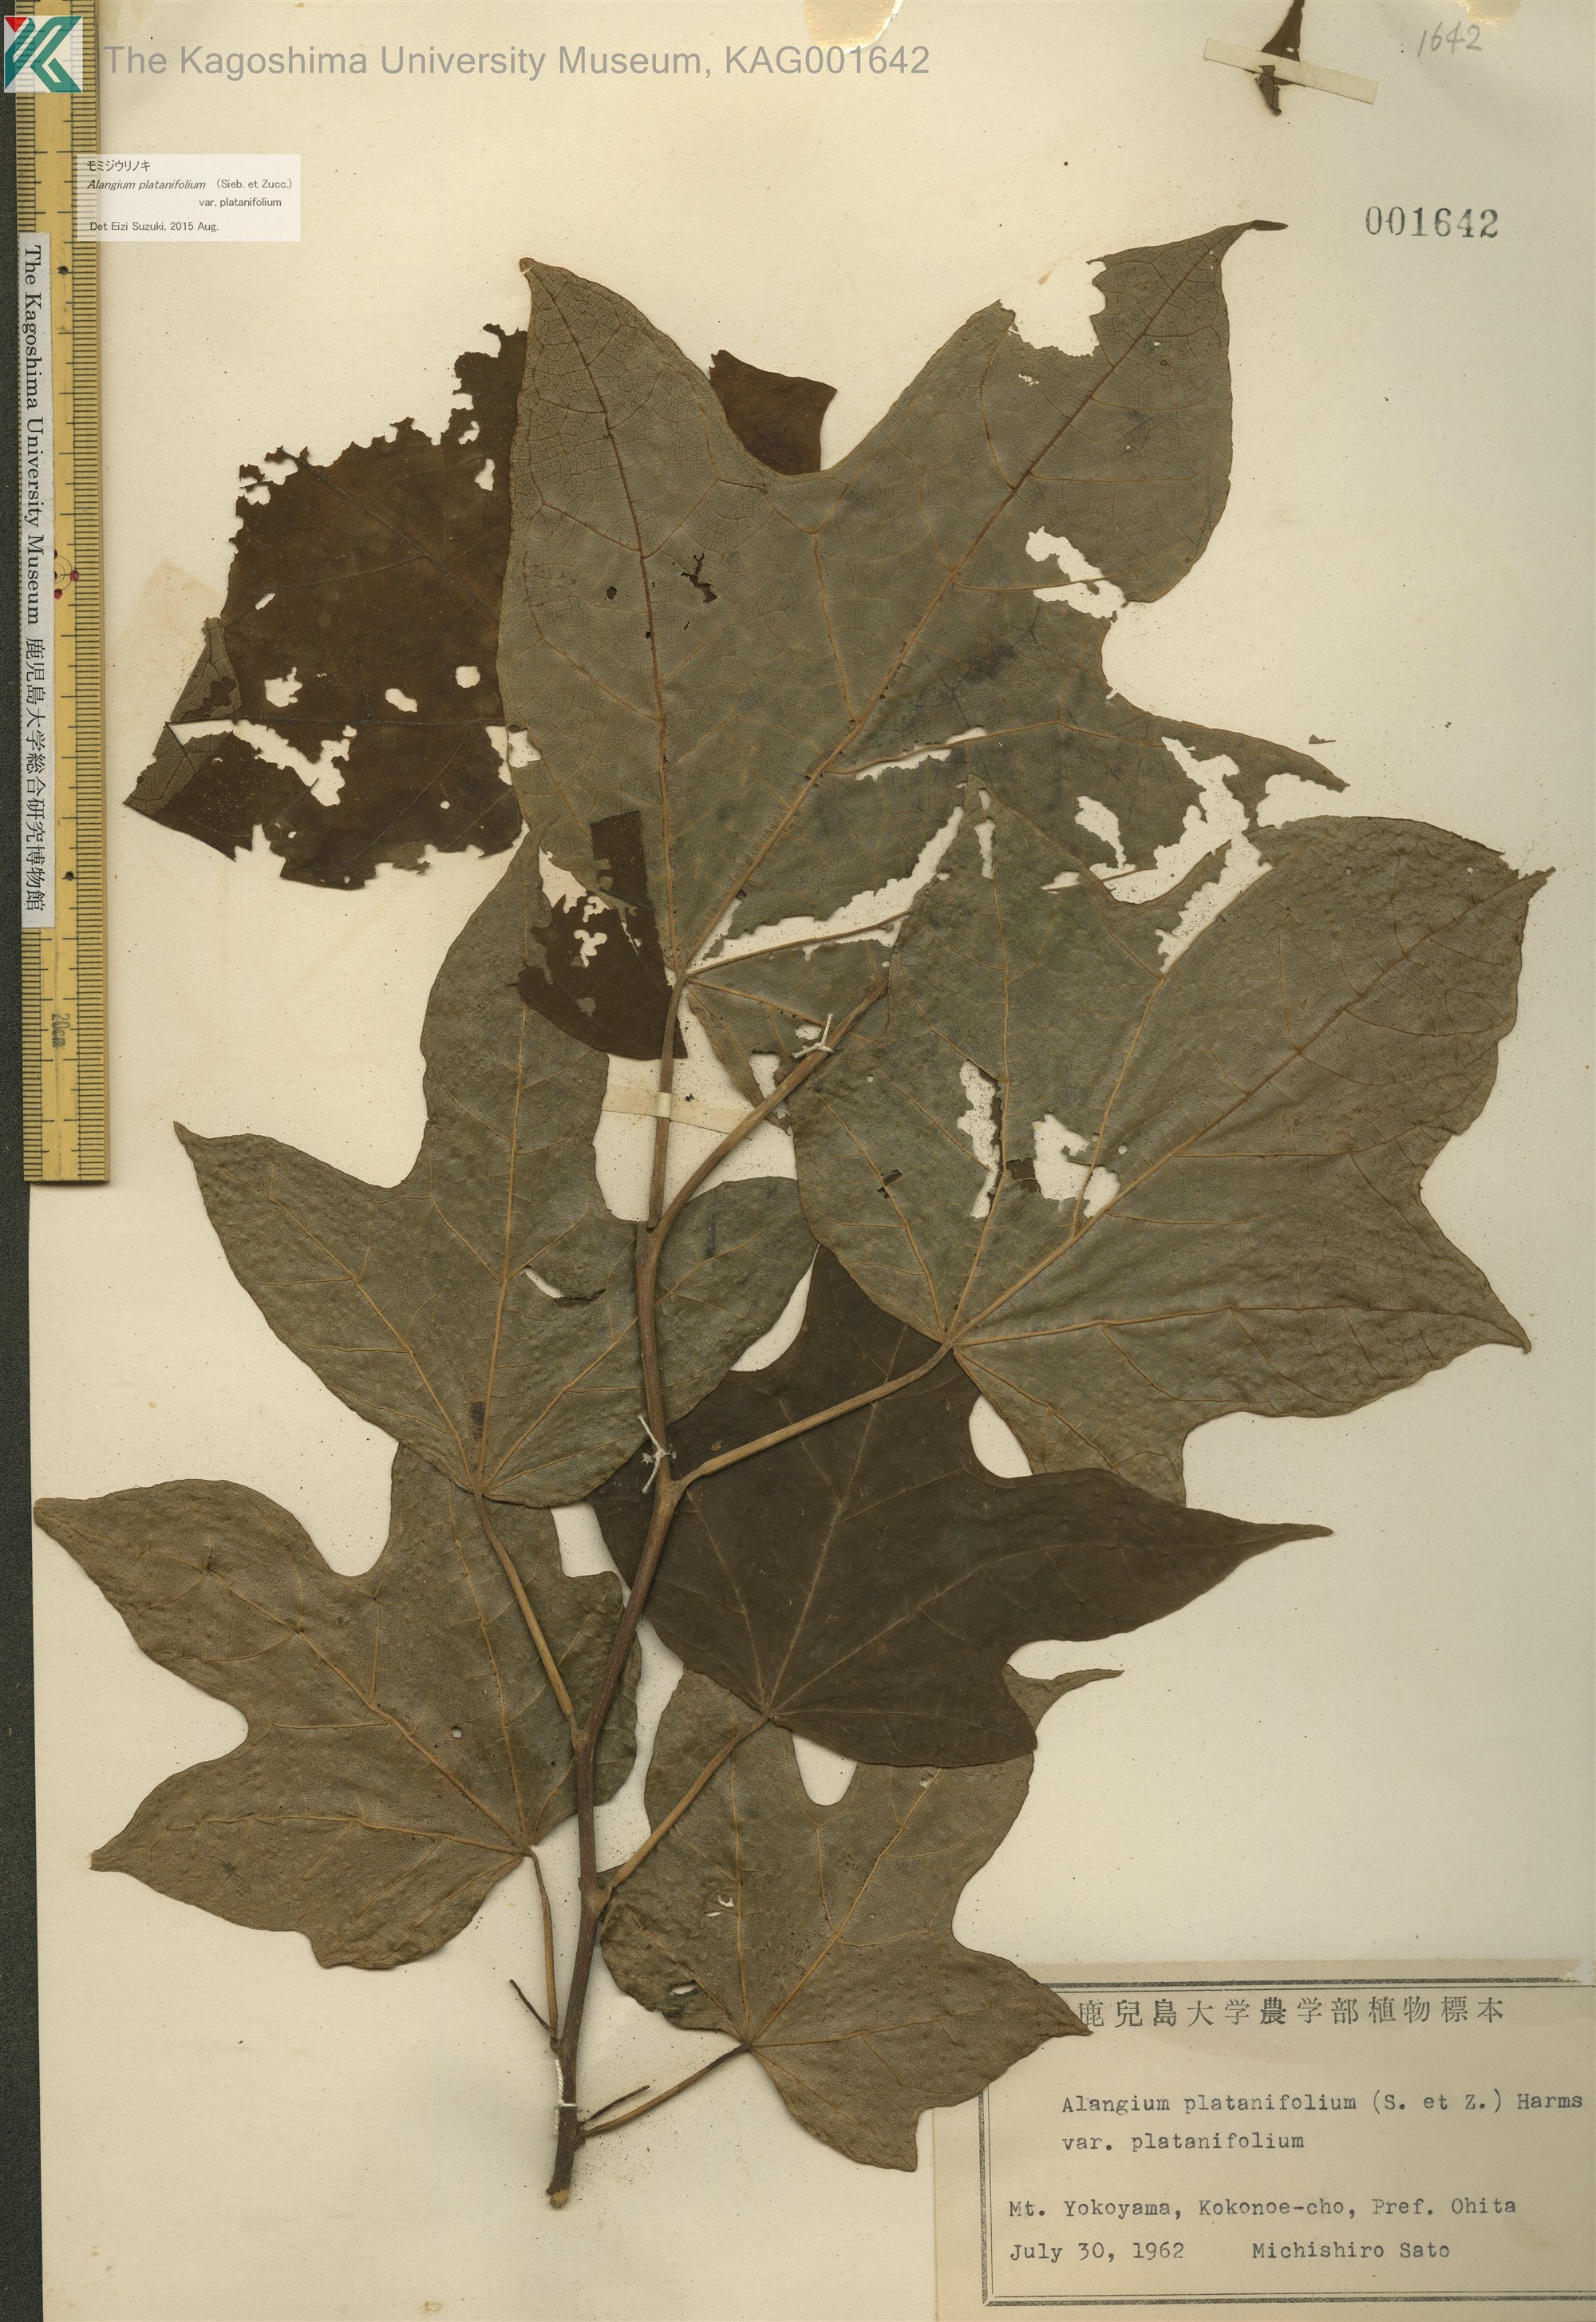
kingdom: Plantae
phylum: Tracheophyta
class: Magnoliopsida
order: Cornales
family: Cornaceae
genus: Alangium
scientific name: Alangium platanifolium
